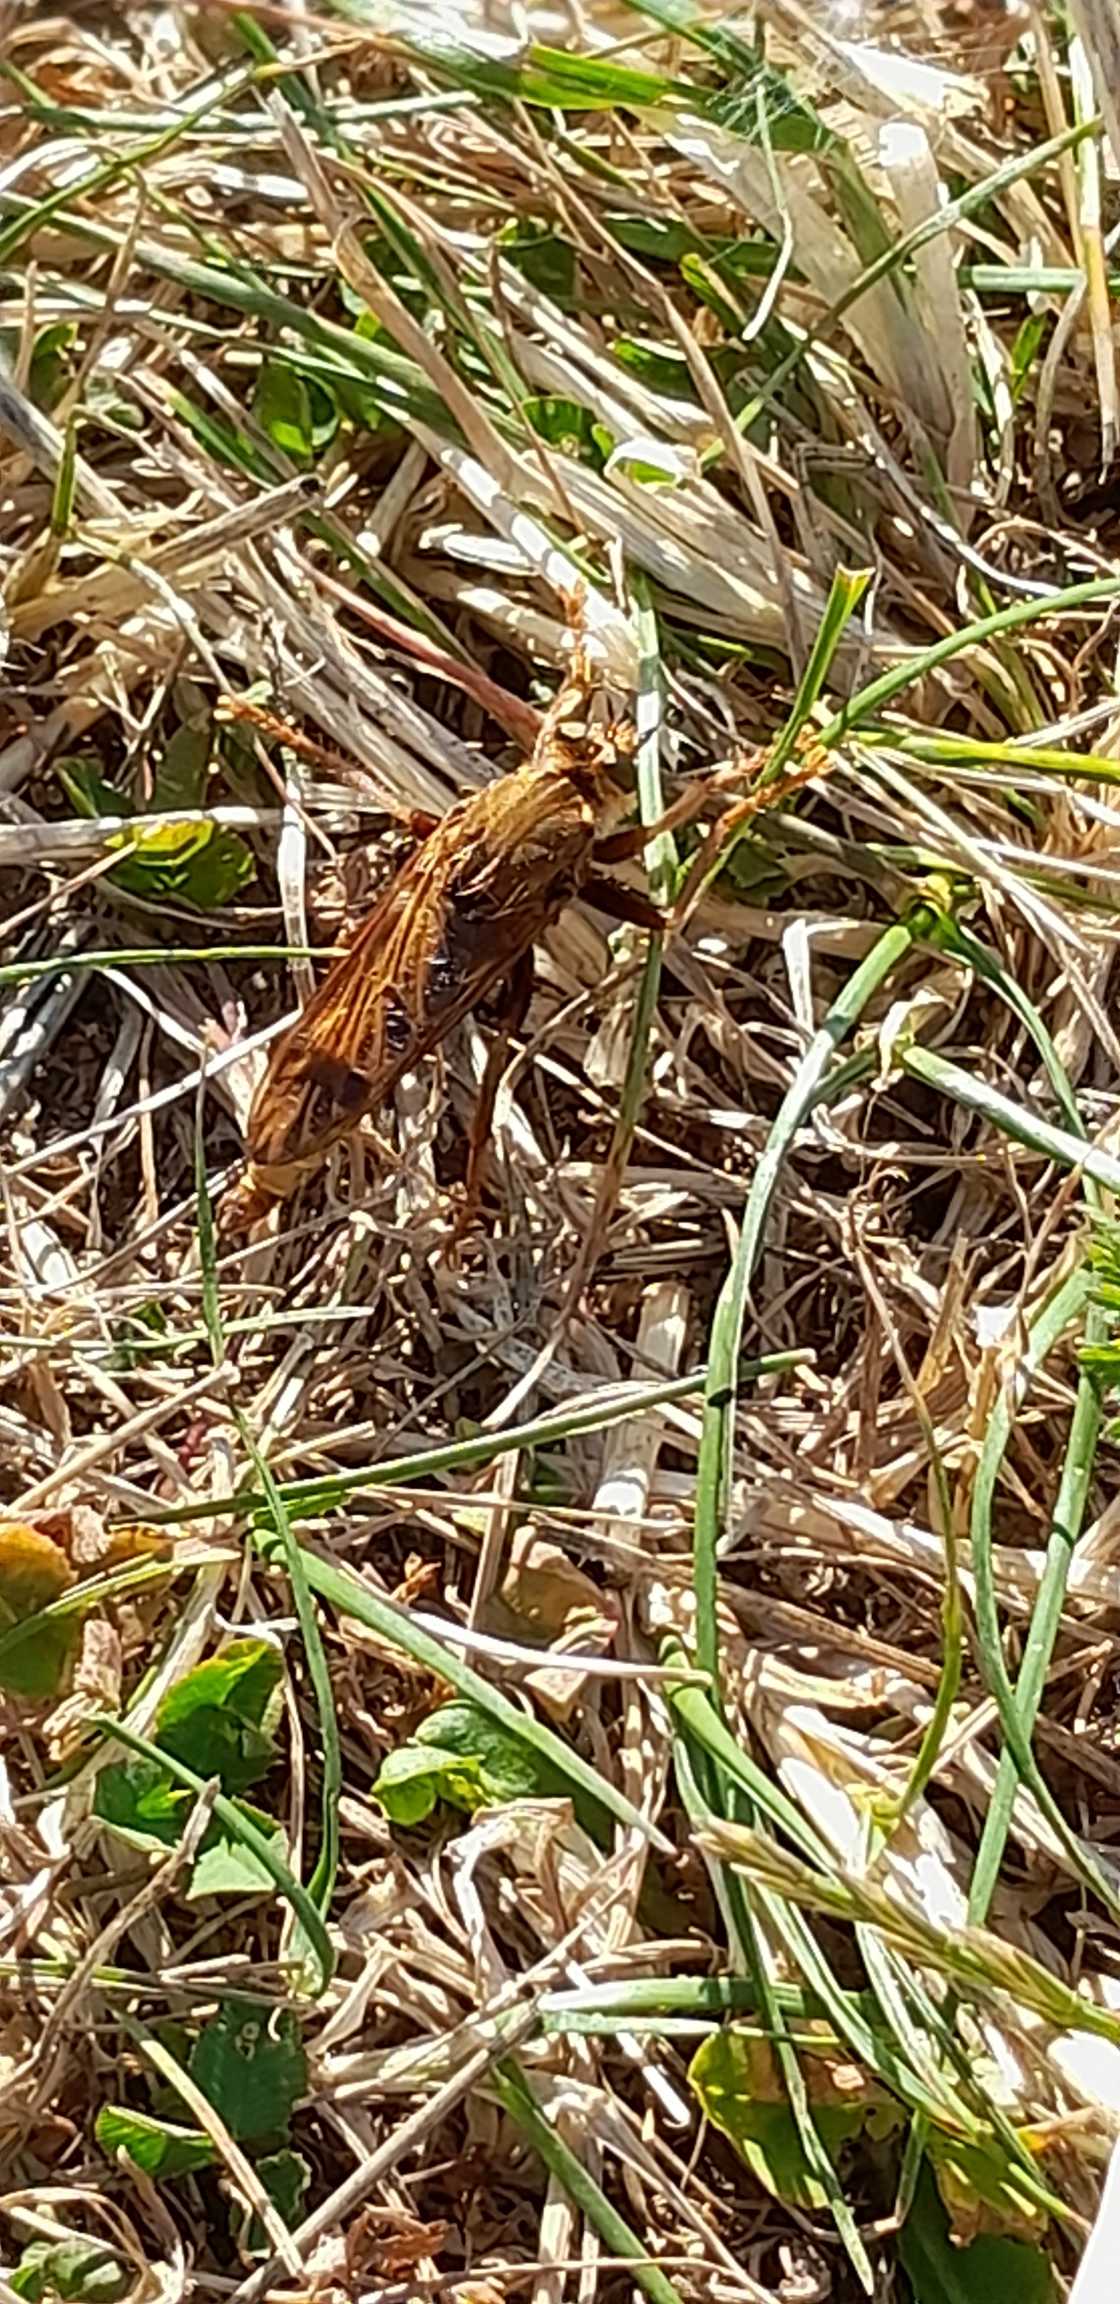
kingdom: Animalia
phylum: Arthropoda
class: Insecta
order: Diptera
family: Asilidae
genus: Asilus
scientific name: Asilus crabroniformis
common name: Stor gødningsrovflue
